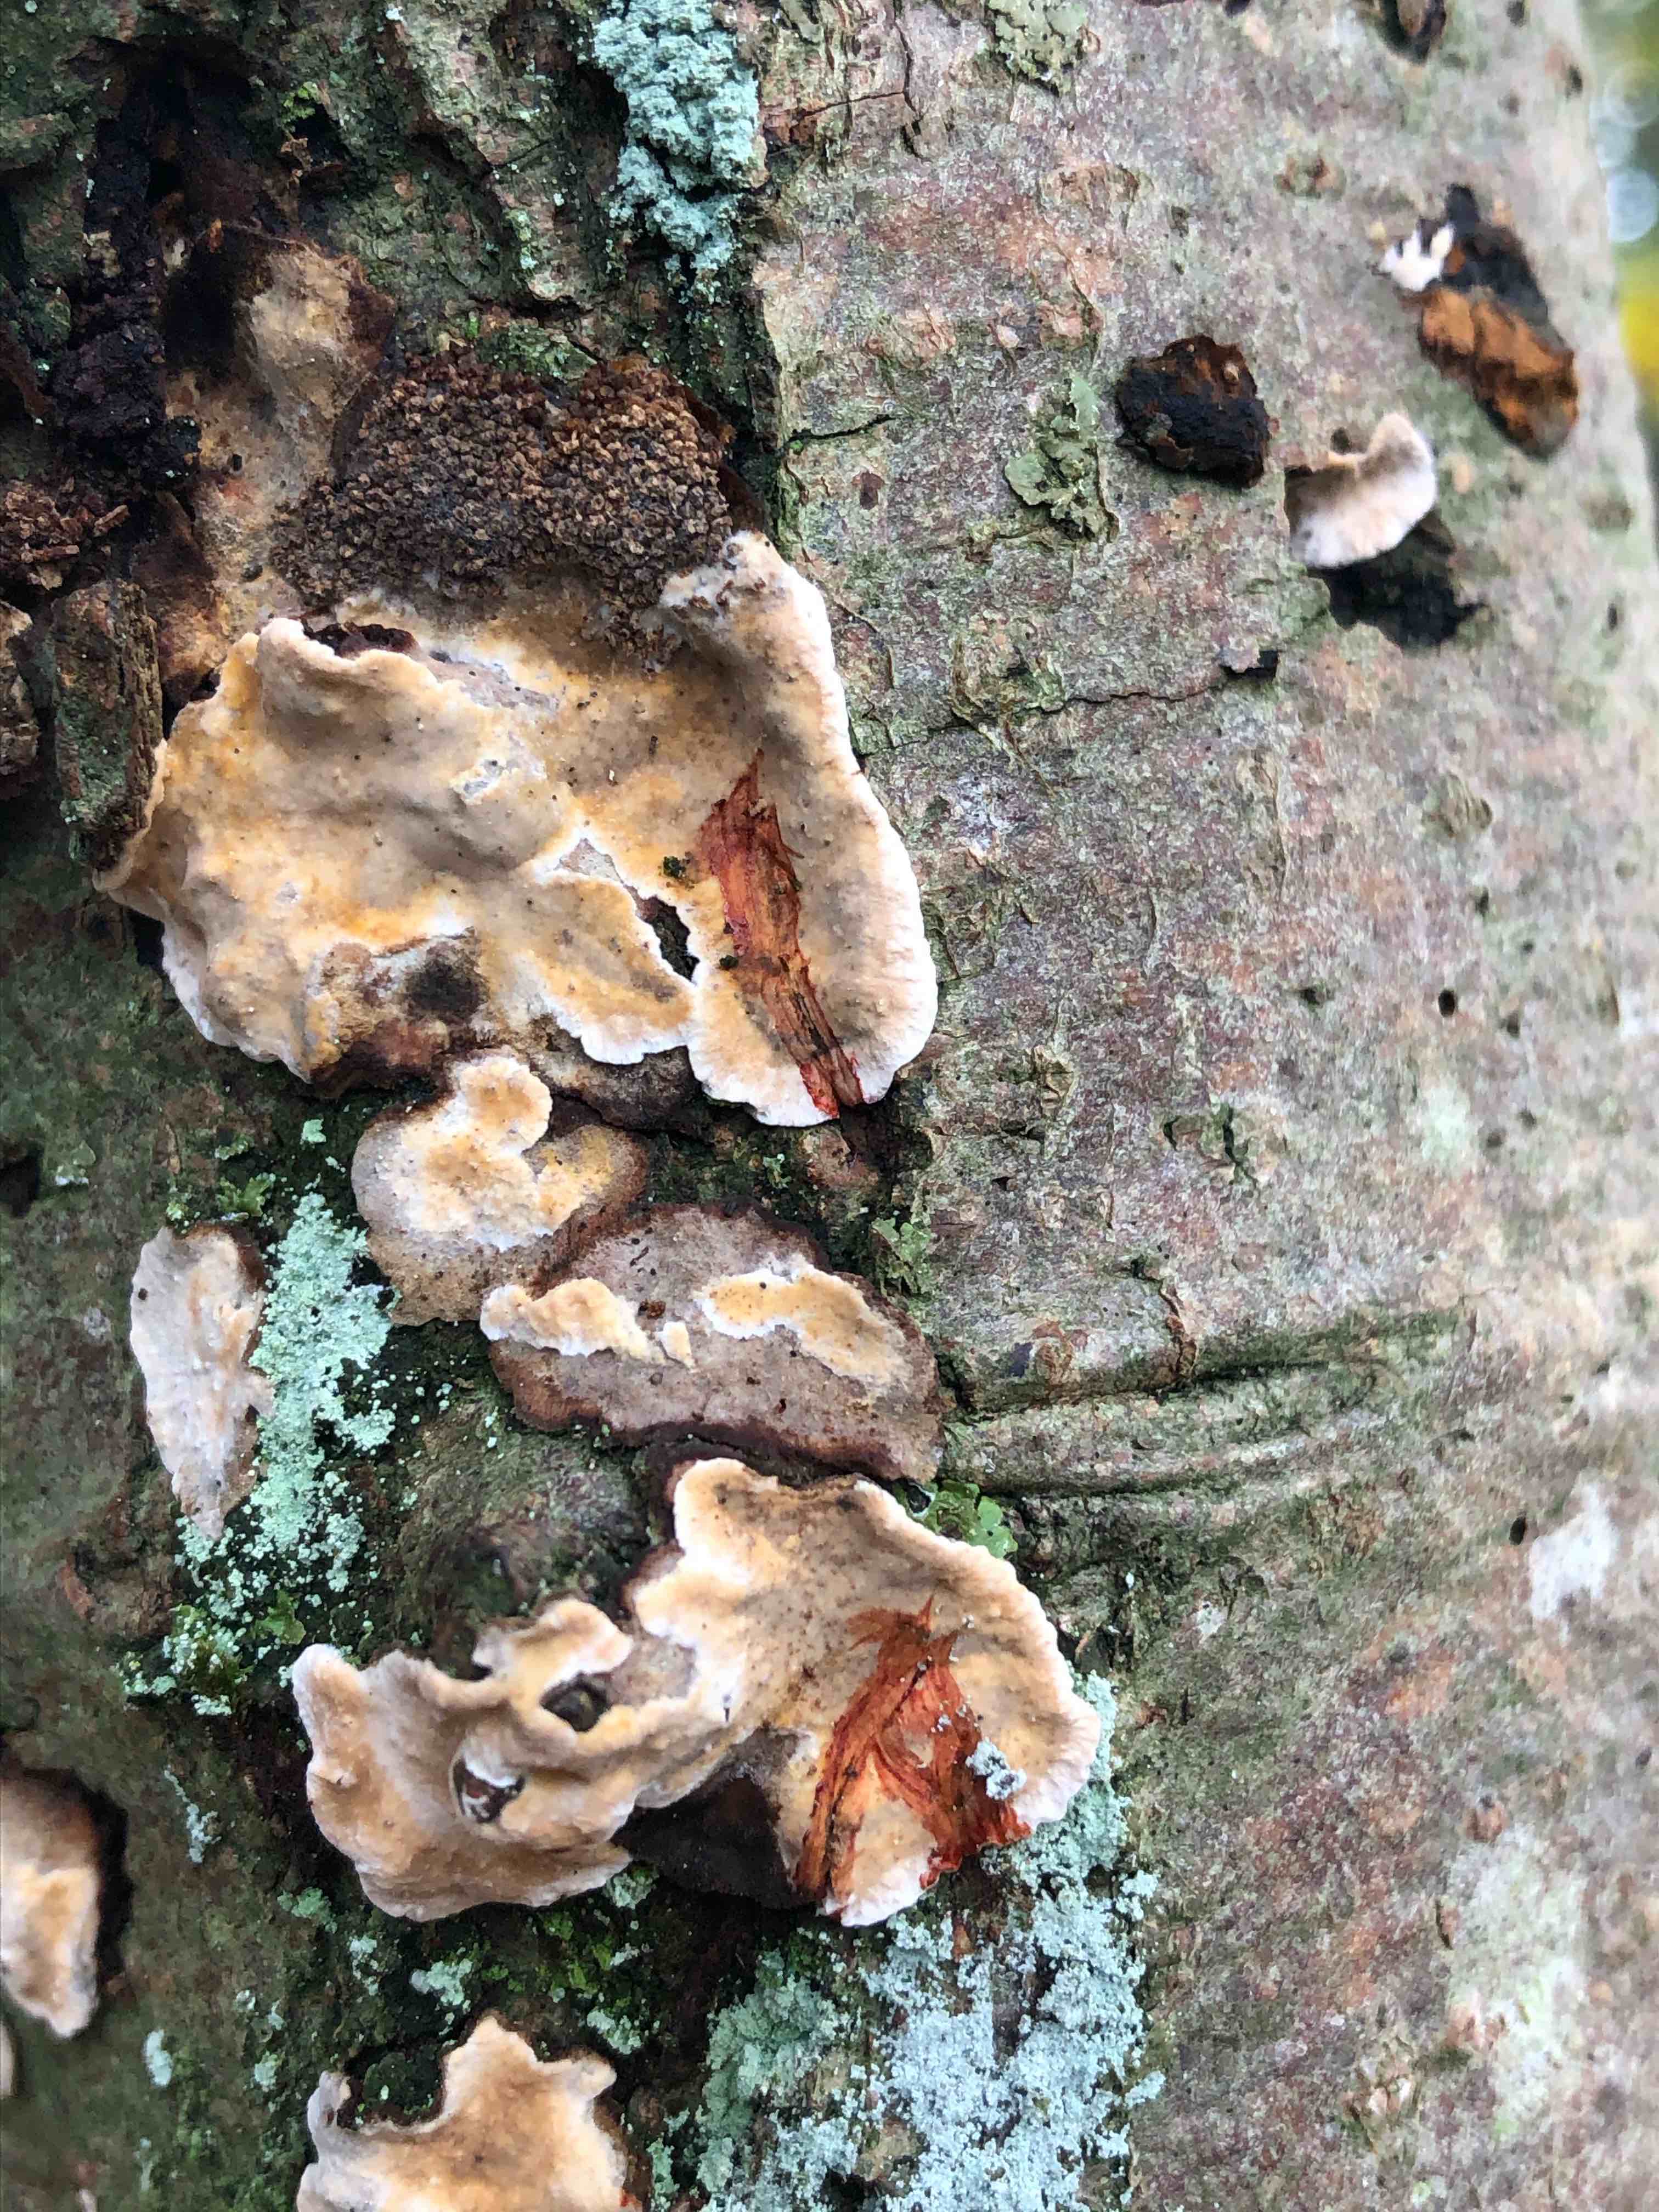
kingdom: Fungi
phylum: Basidiomycota
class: Agaricomycetes
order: Russulales
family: Stereaceae
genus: Stereum
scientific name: Stereum rugosum
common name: rynket lædersvamp
